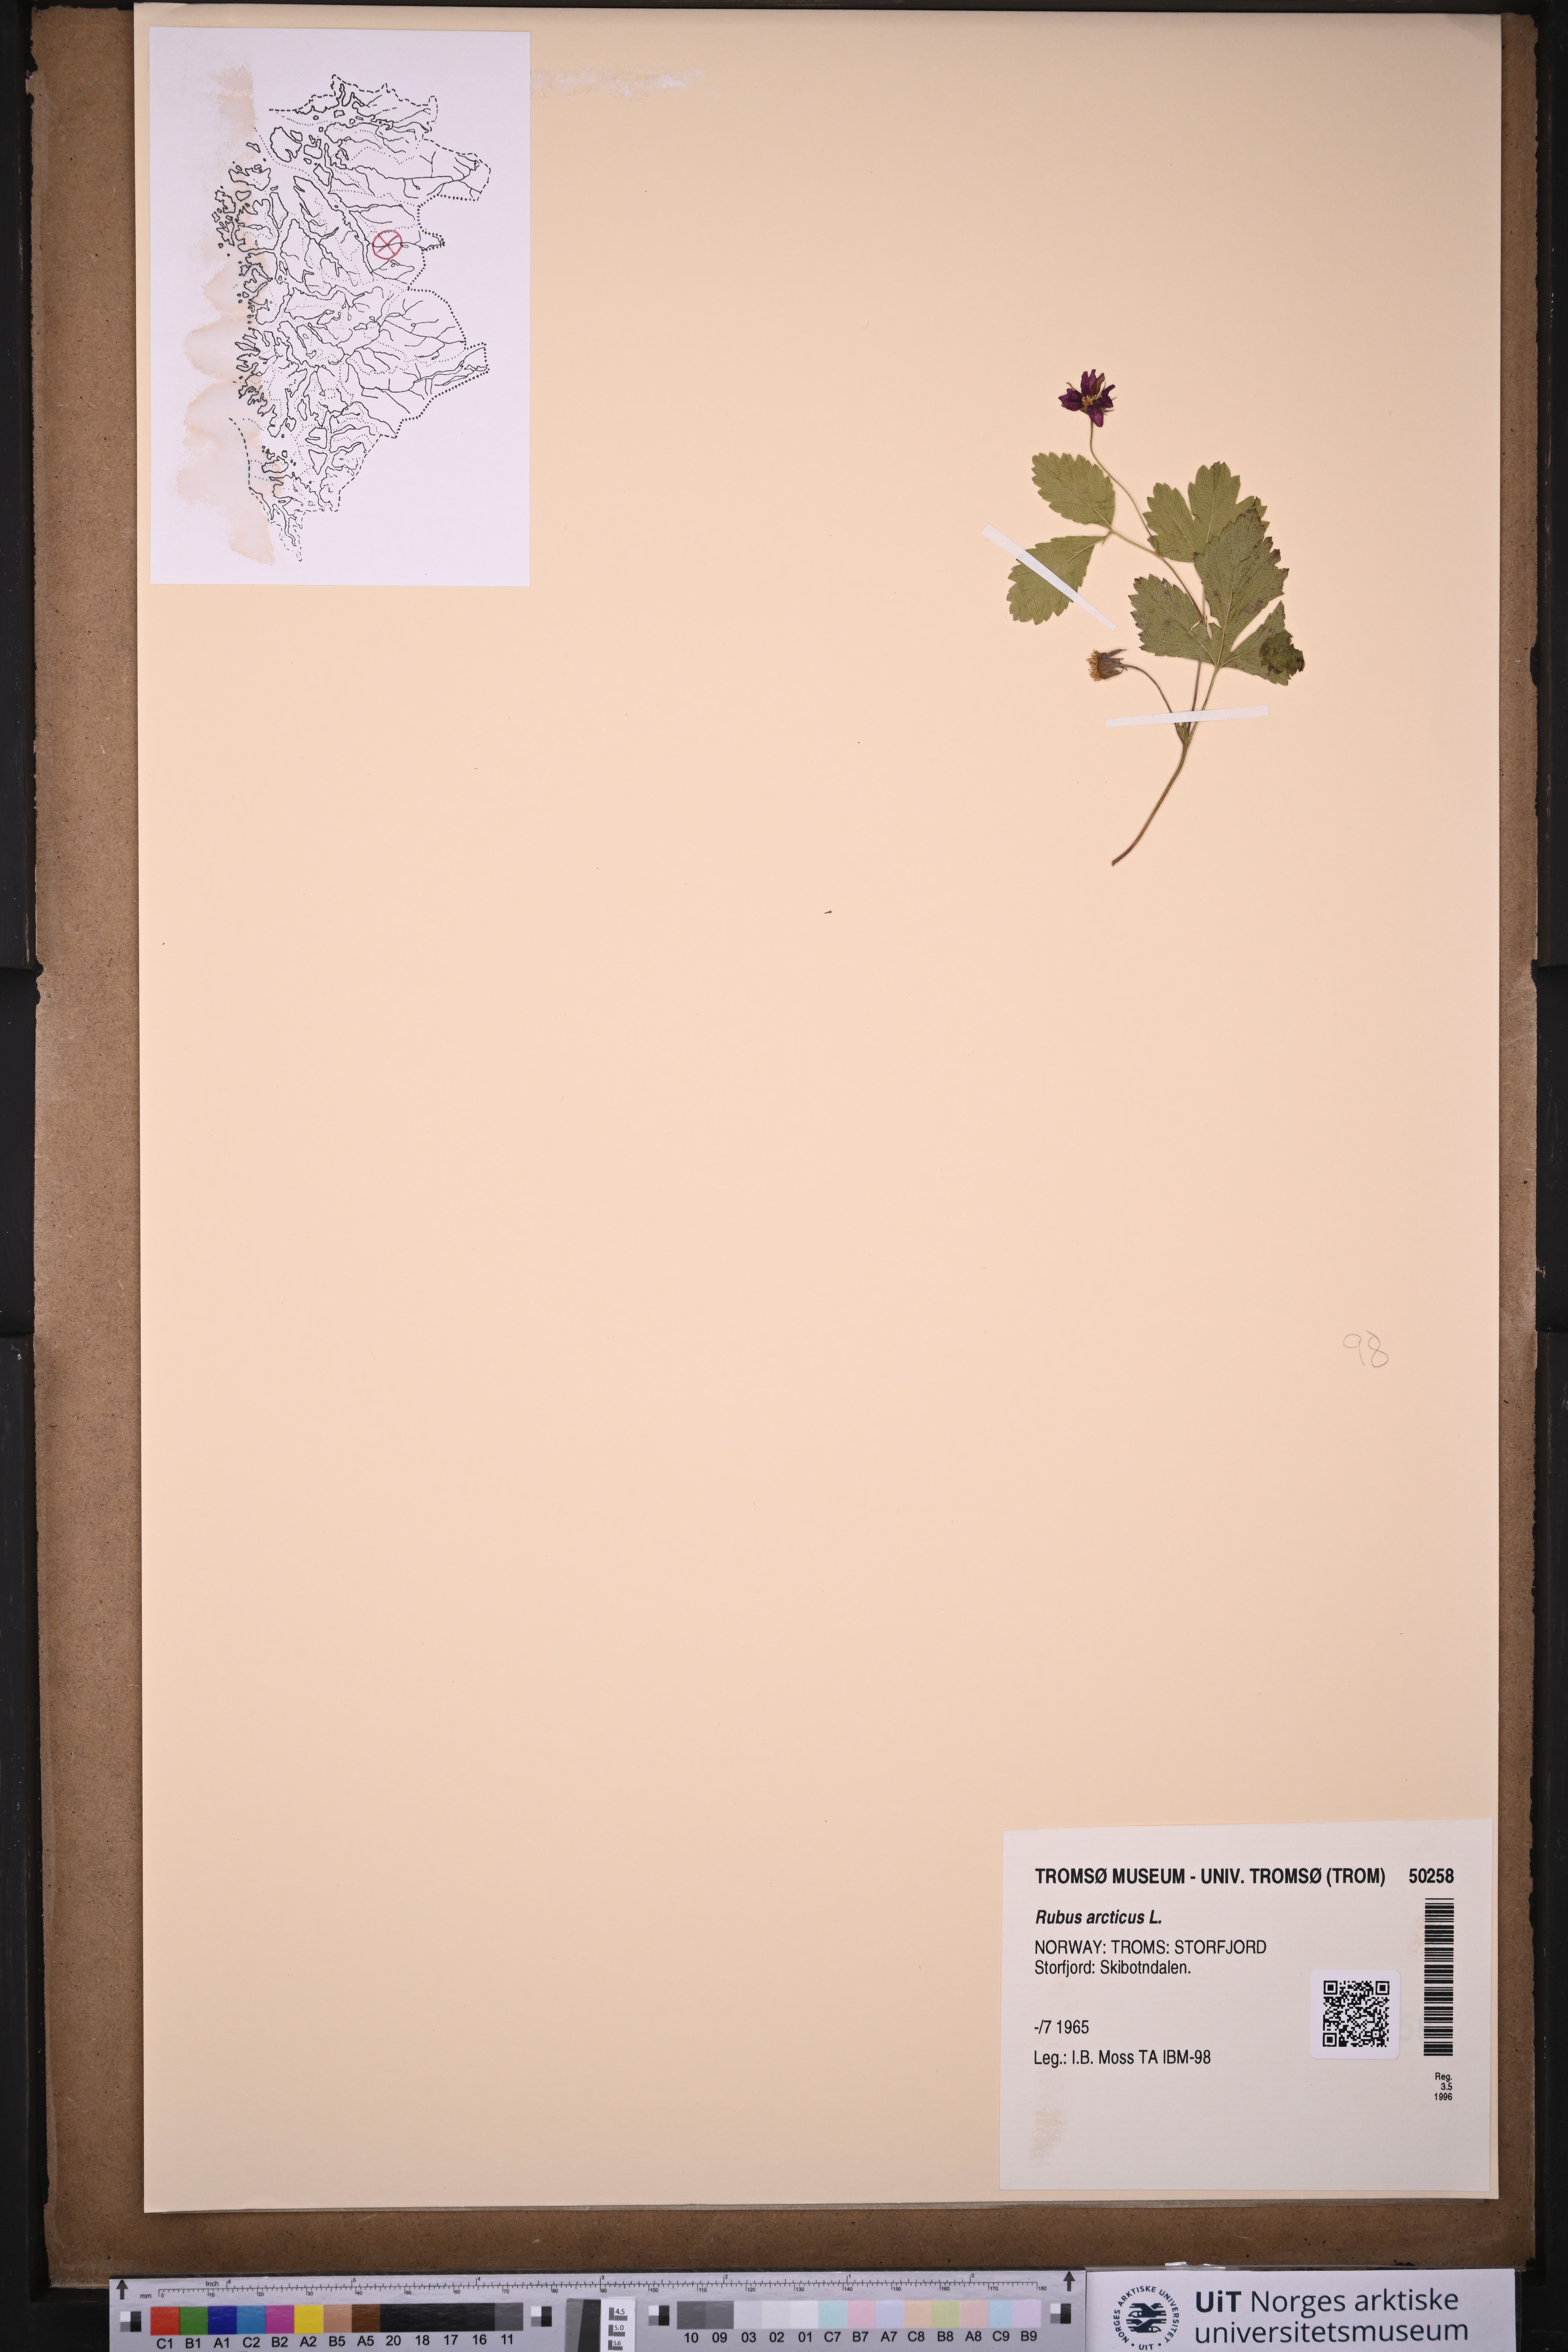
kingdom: Plantae
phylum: Tracheophyta
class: Magnoliopsida
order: Rosales
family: Rosaceae
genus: Rubus
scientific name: Rubus arcticus
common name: Arctic bramble
